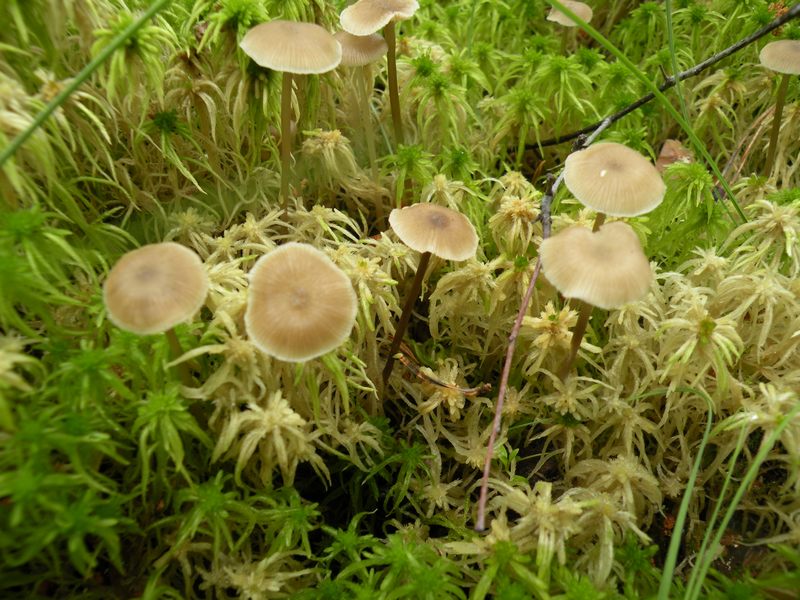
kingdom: Fungi
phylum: Basidiomycota
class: Agaricomycetes
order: Agaricales
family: Lyophyllaceae
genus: Sphagnurus
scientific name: Sphagnurus paluster
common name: tørvemos-gråblad
